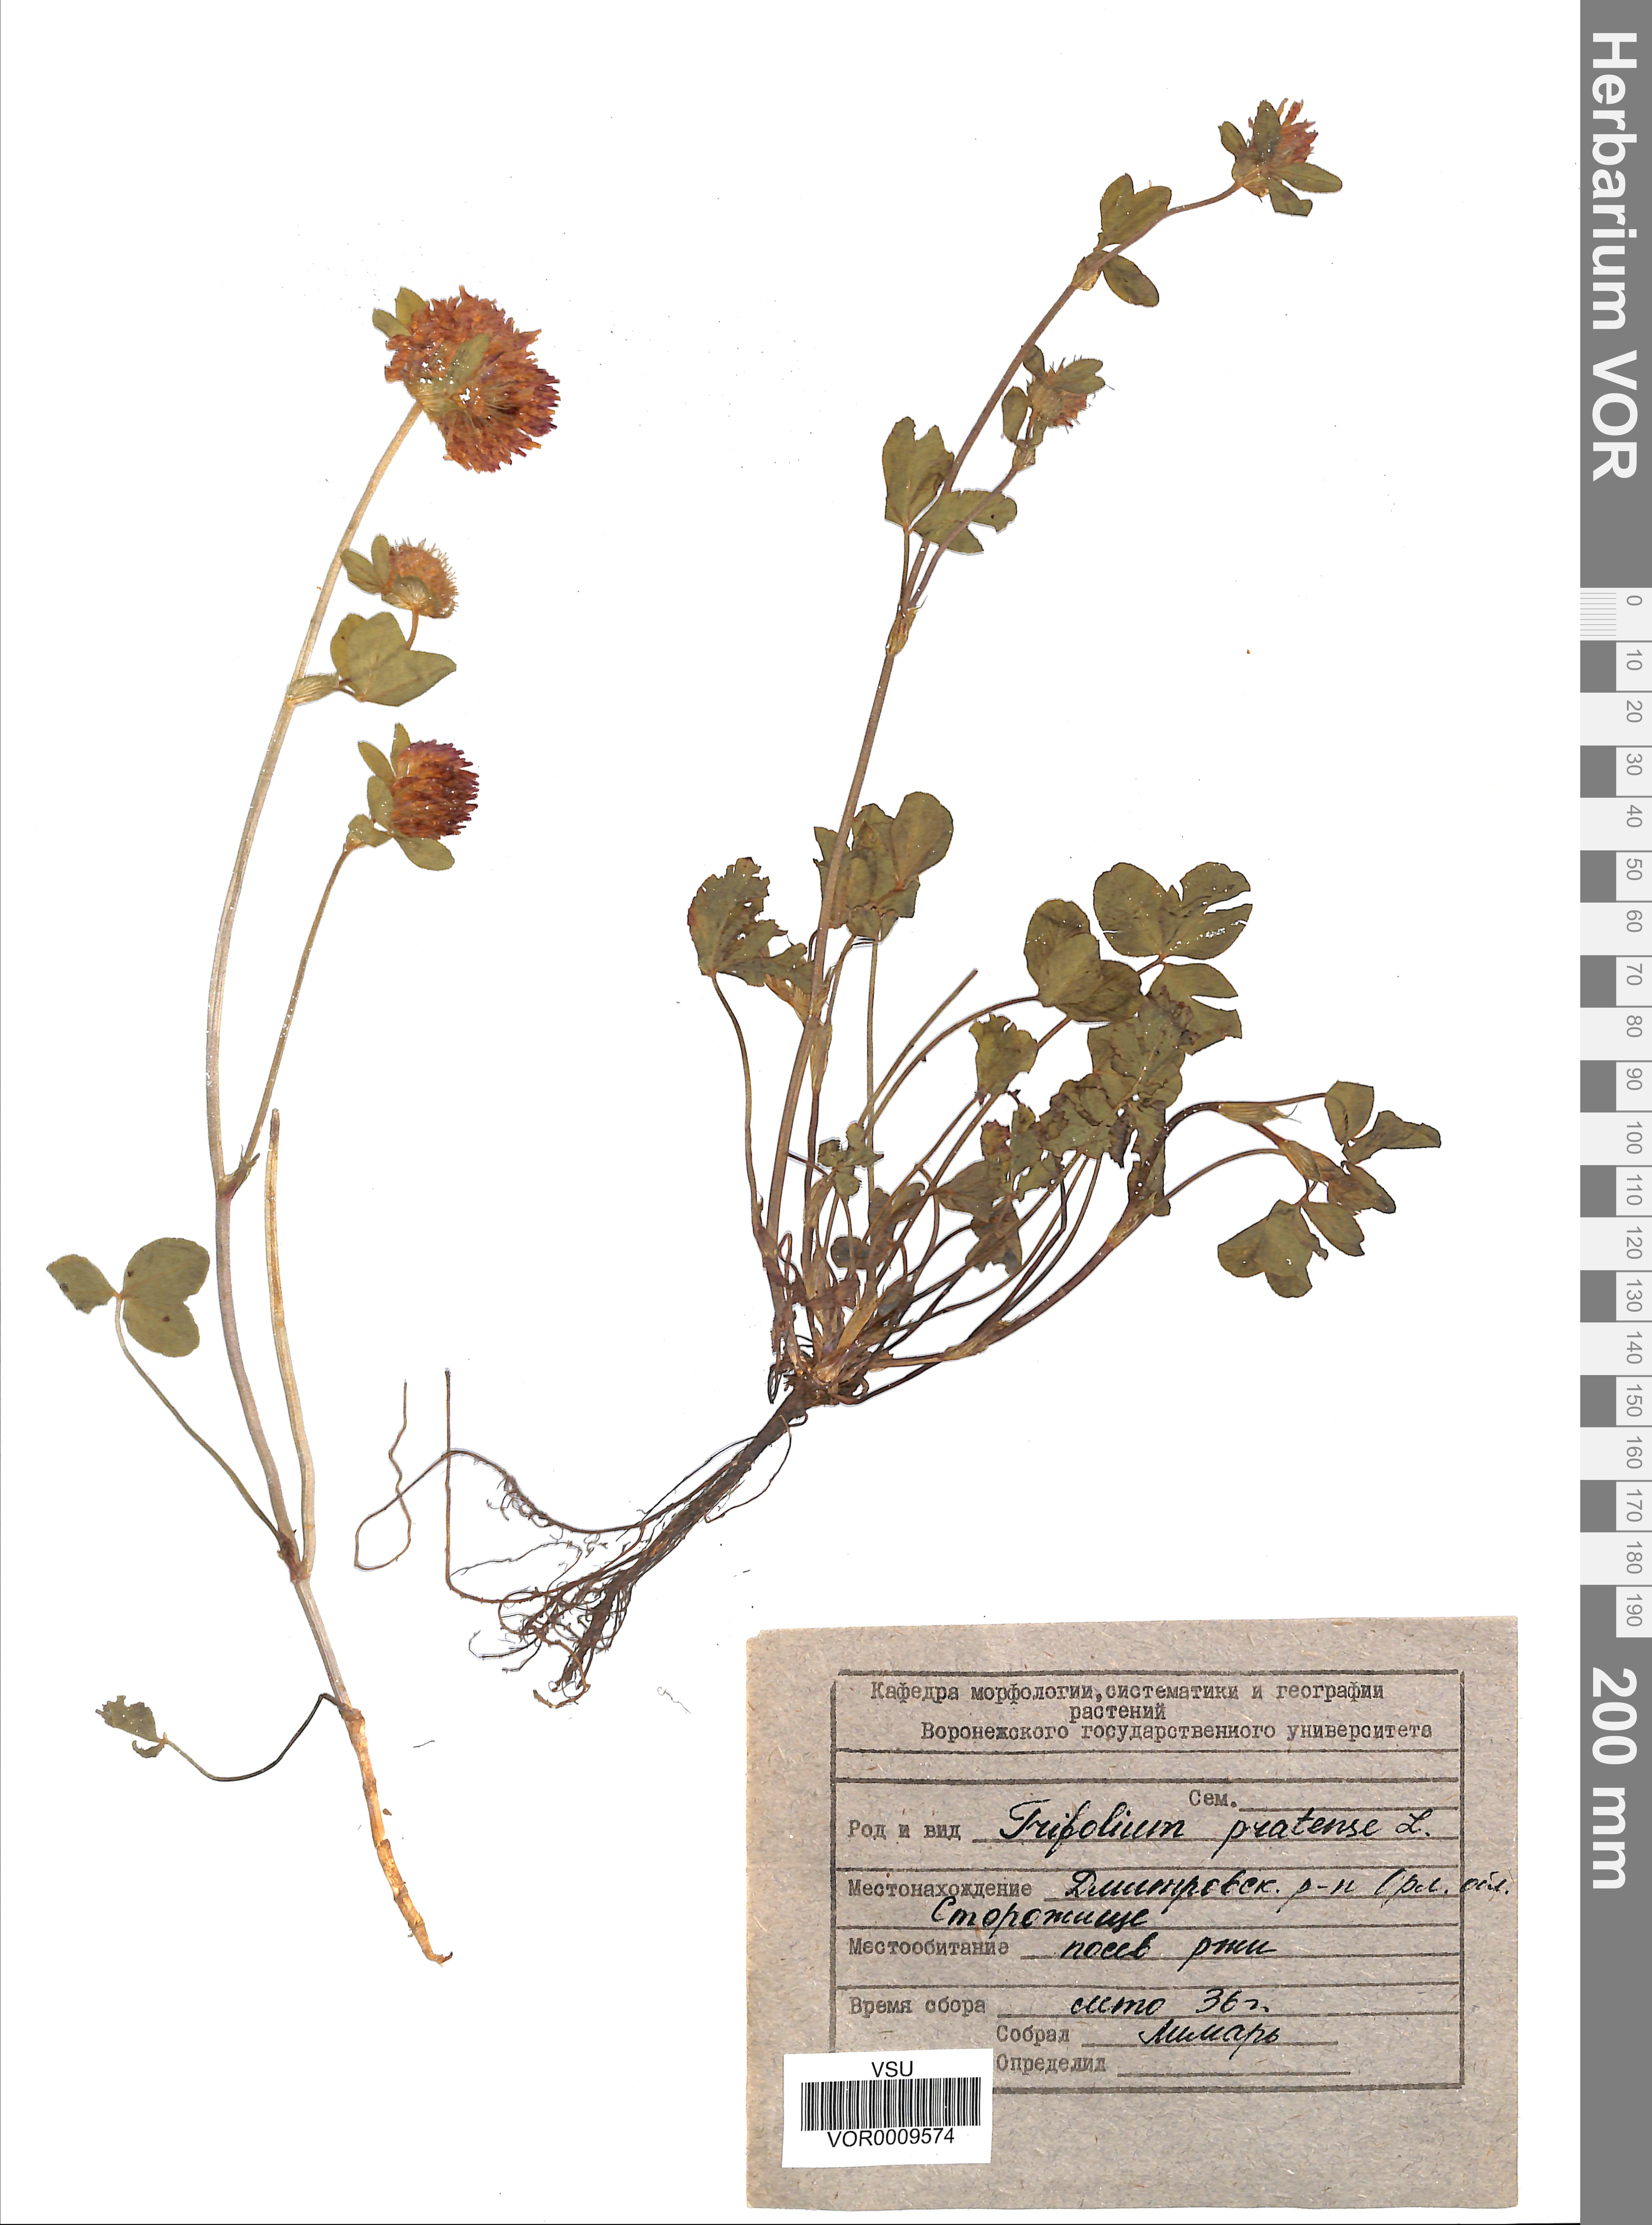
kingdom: Plantae
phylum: Tracheophyta
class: Magnoliopsida
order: Fabales
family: Fabaceae
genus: Trifolium
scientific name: Trifolium pratense
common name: Red clover
